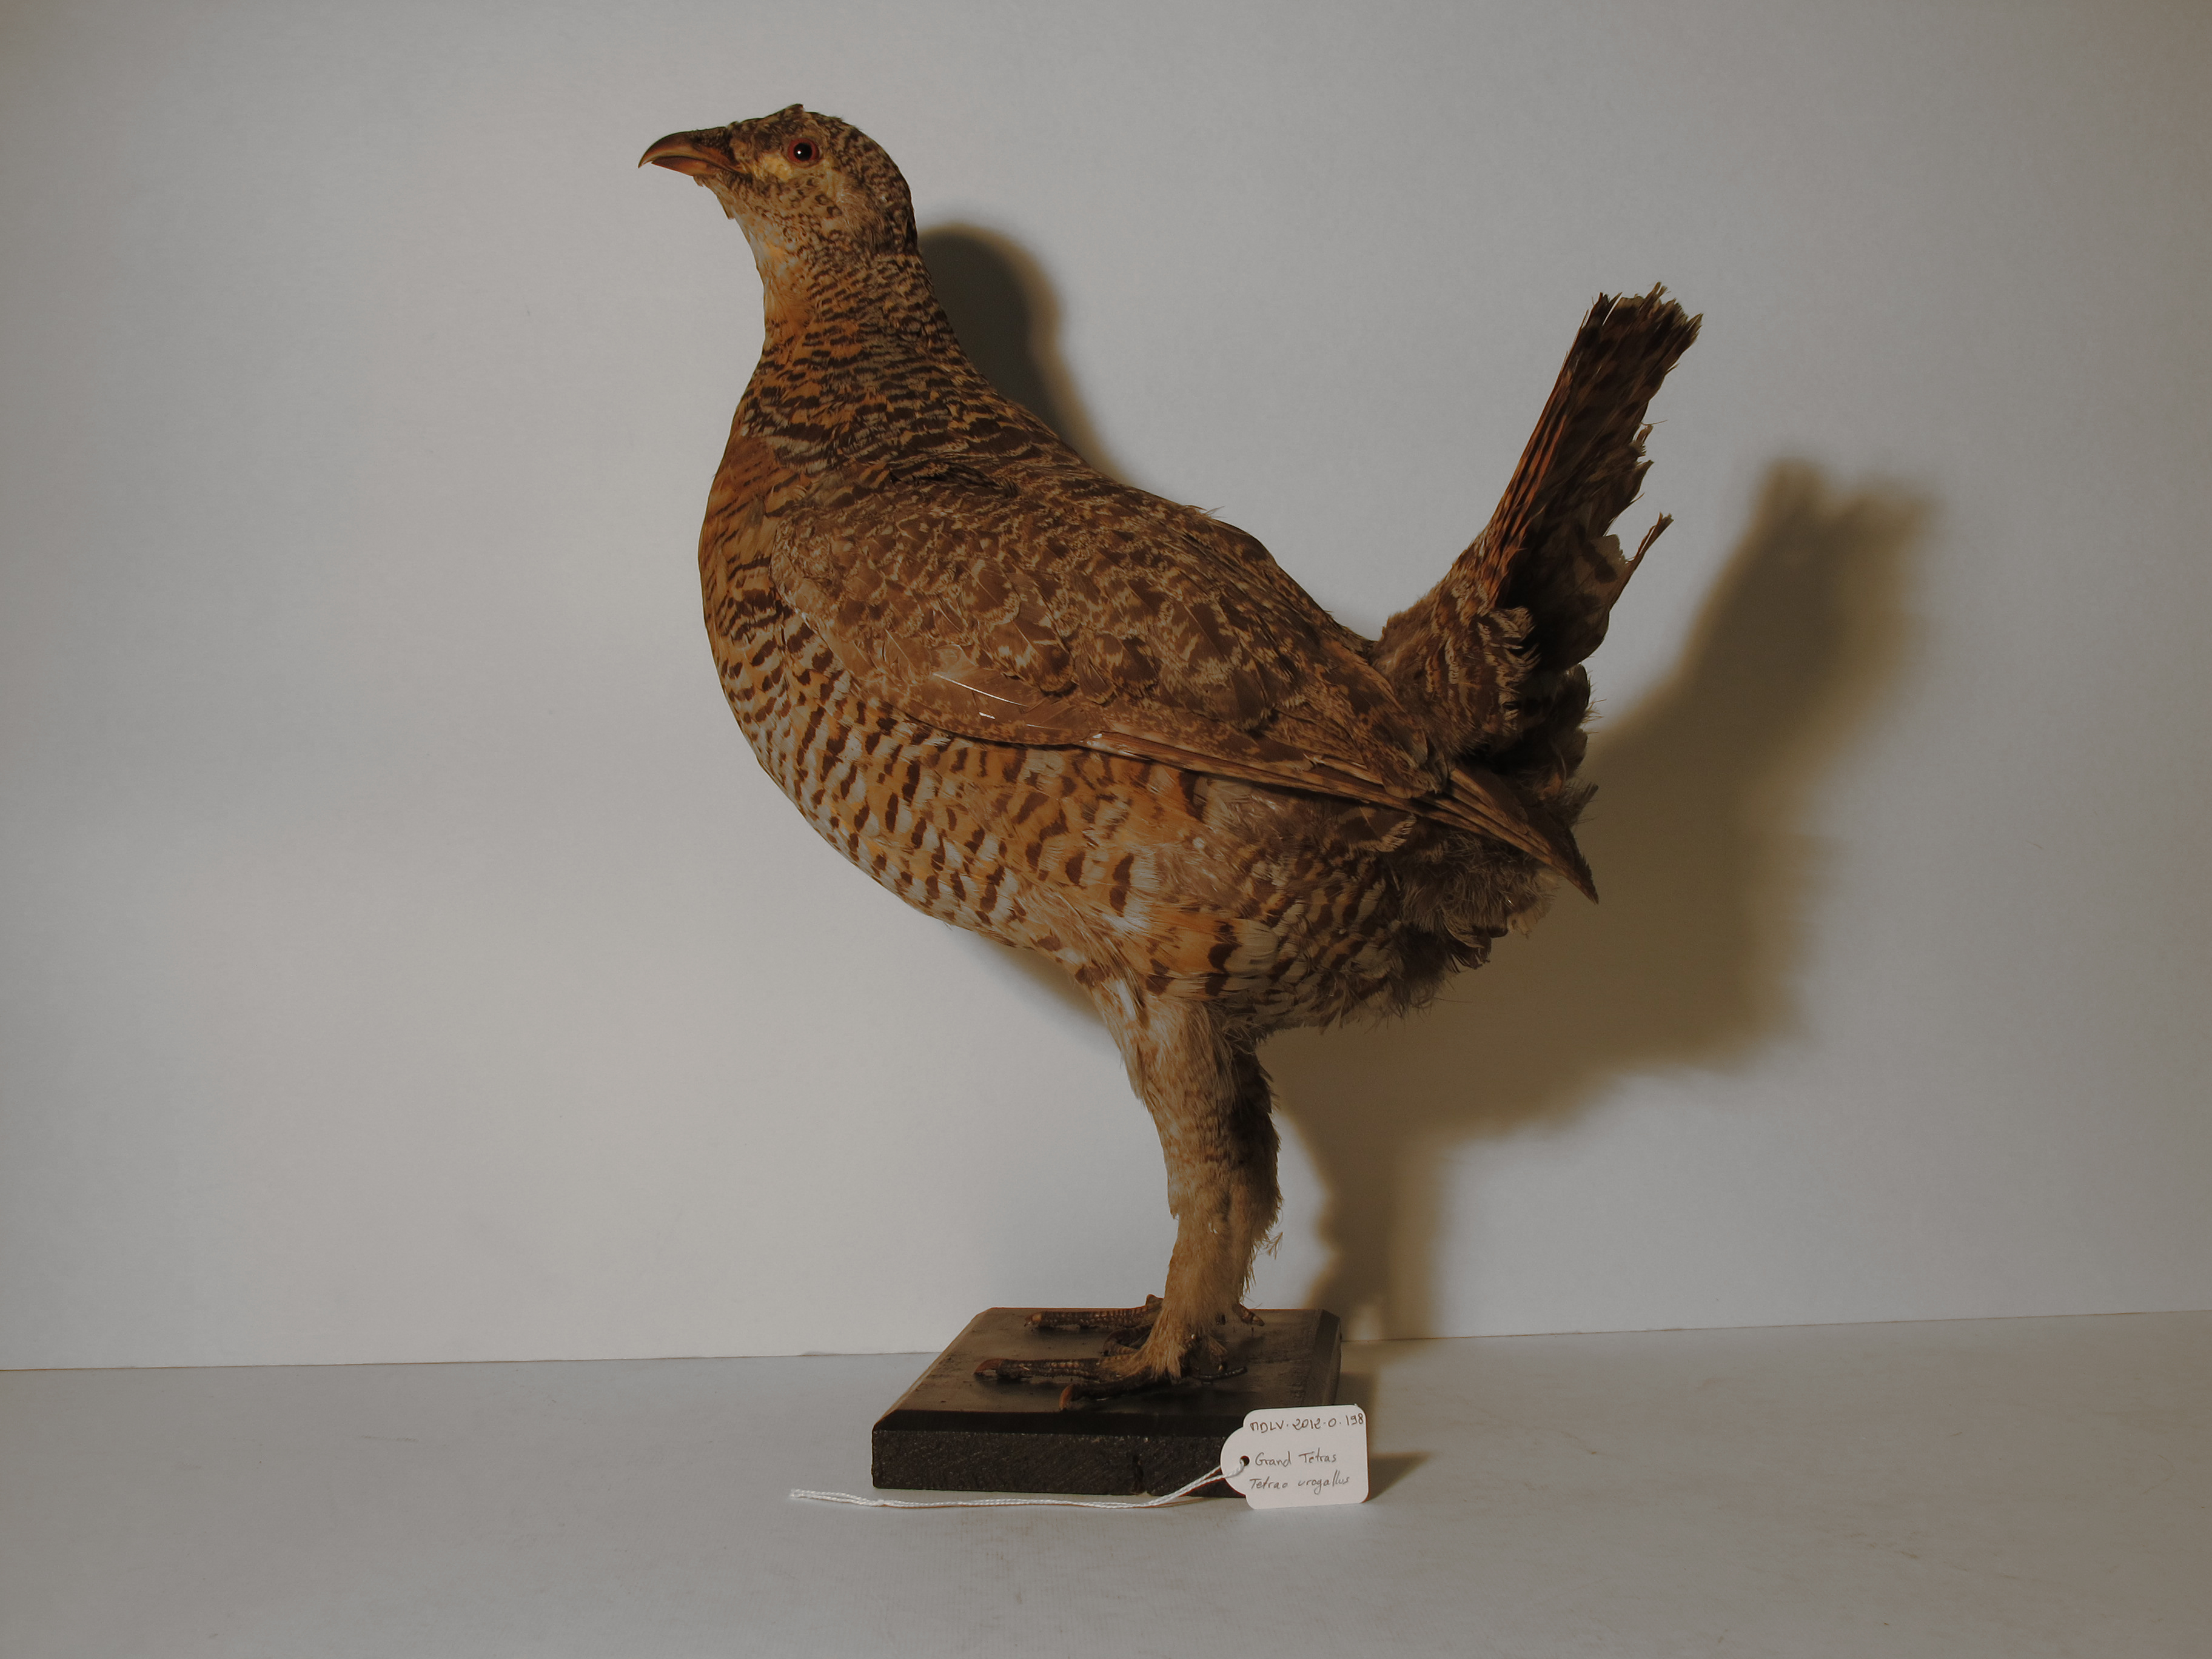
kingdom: Animalia
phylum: Chordata
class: Aves
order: Galliformes
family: Phasianidae
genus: Tetrao
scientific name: Tetrao urogallus
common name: Western Capercaillie
